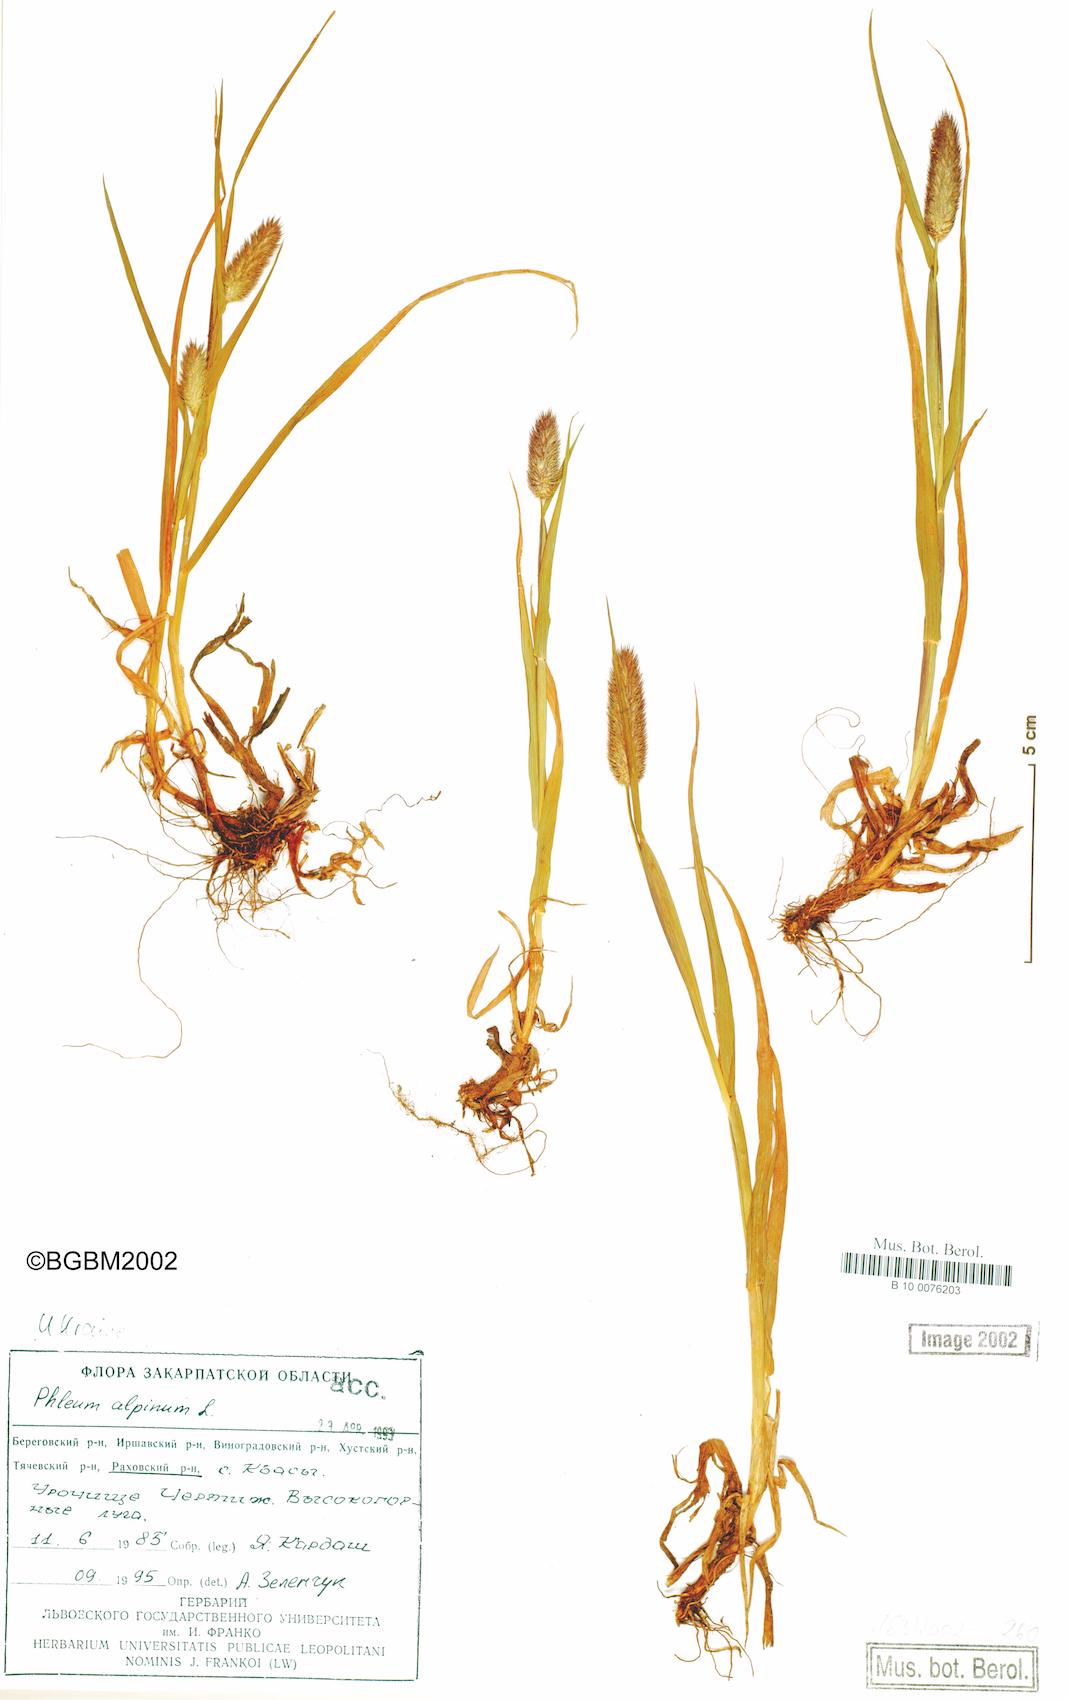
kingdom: Plantae
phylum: Tracheophyta
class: Liliopsida
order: Poales
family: Poaceae
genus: Phleum
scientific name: Phleum alpinum
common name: Alpine cat's-tail
